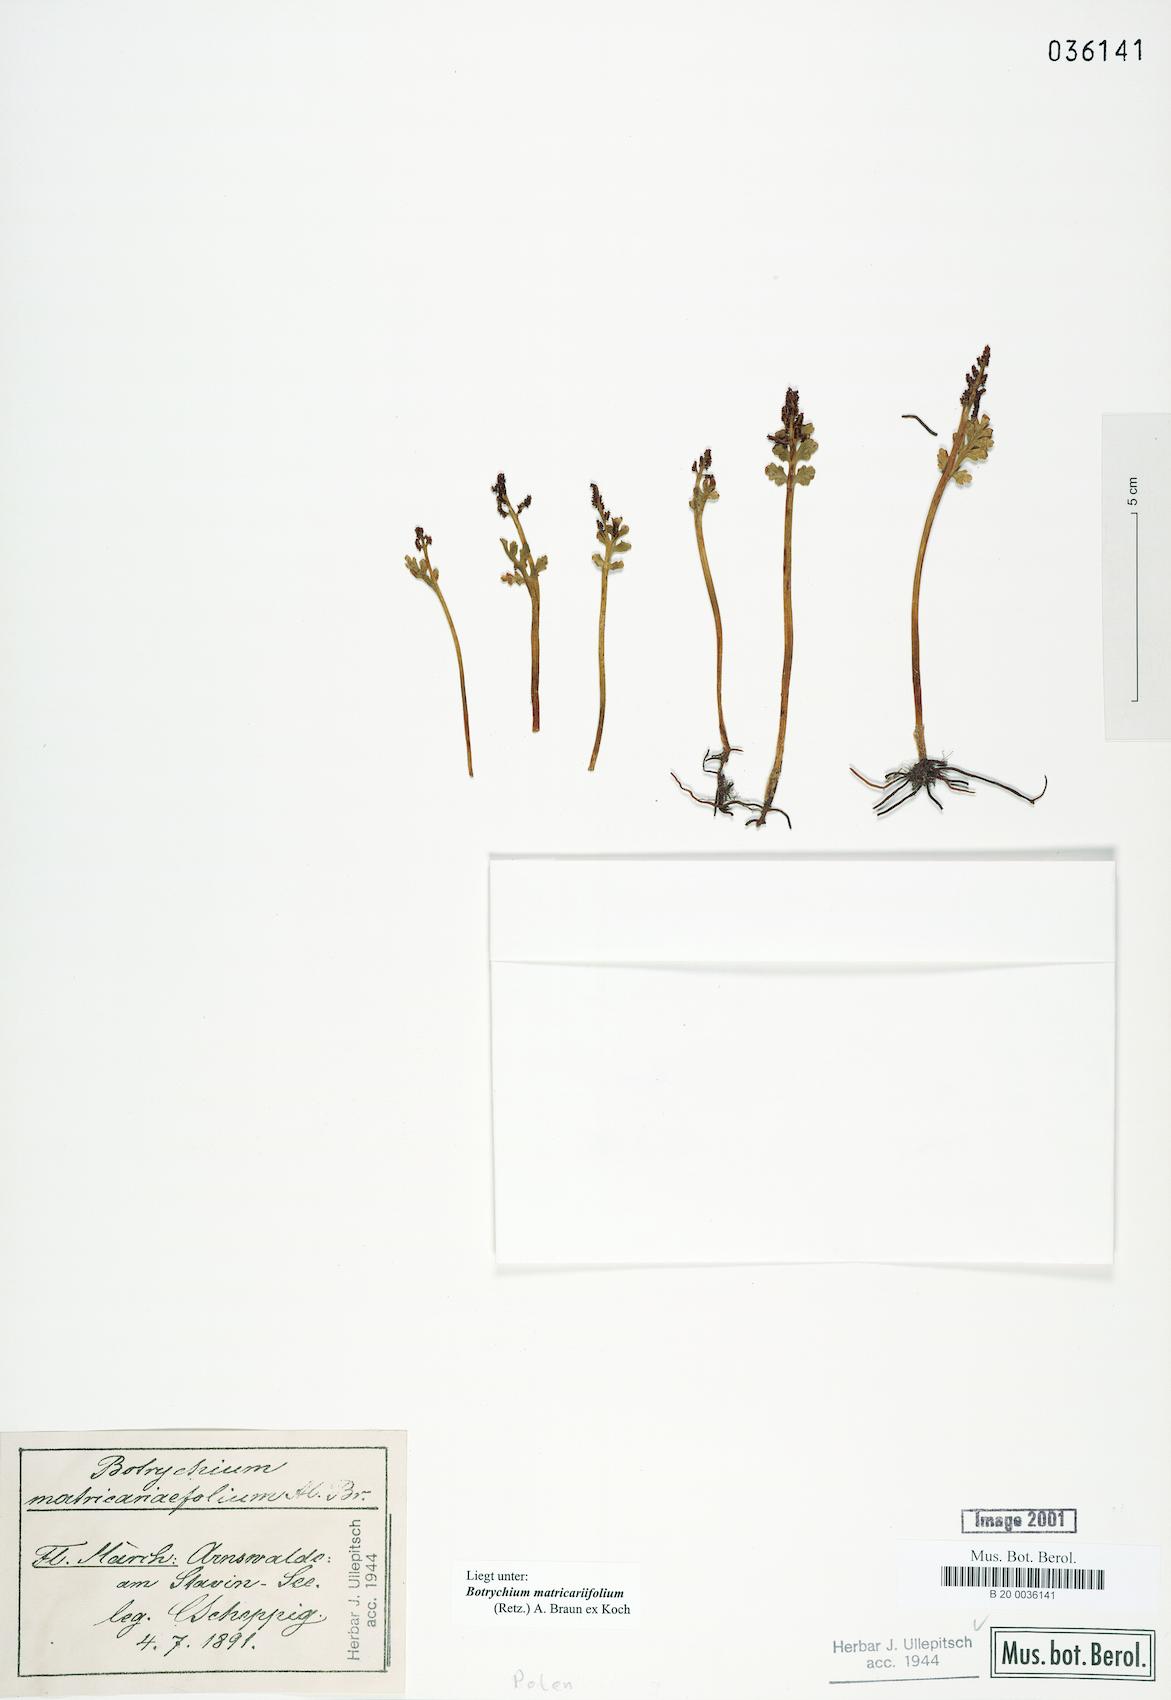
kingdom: Plantae
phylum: Tracheophyta
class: Polypodiopsida
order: Ophioglossales
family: Ophioglossaceae
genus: Botrychium
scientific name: Botrychium matricariifolium
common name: Branched moonwort
